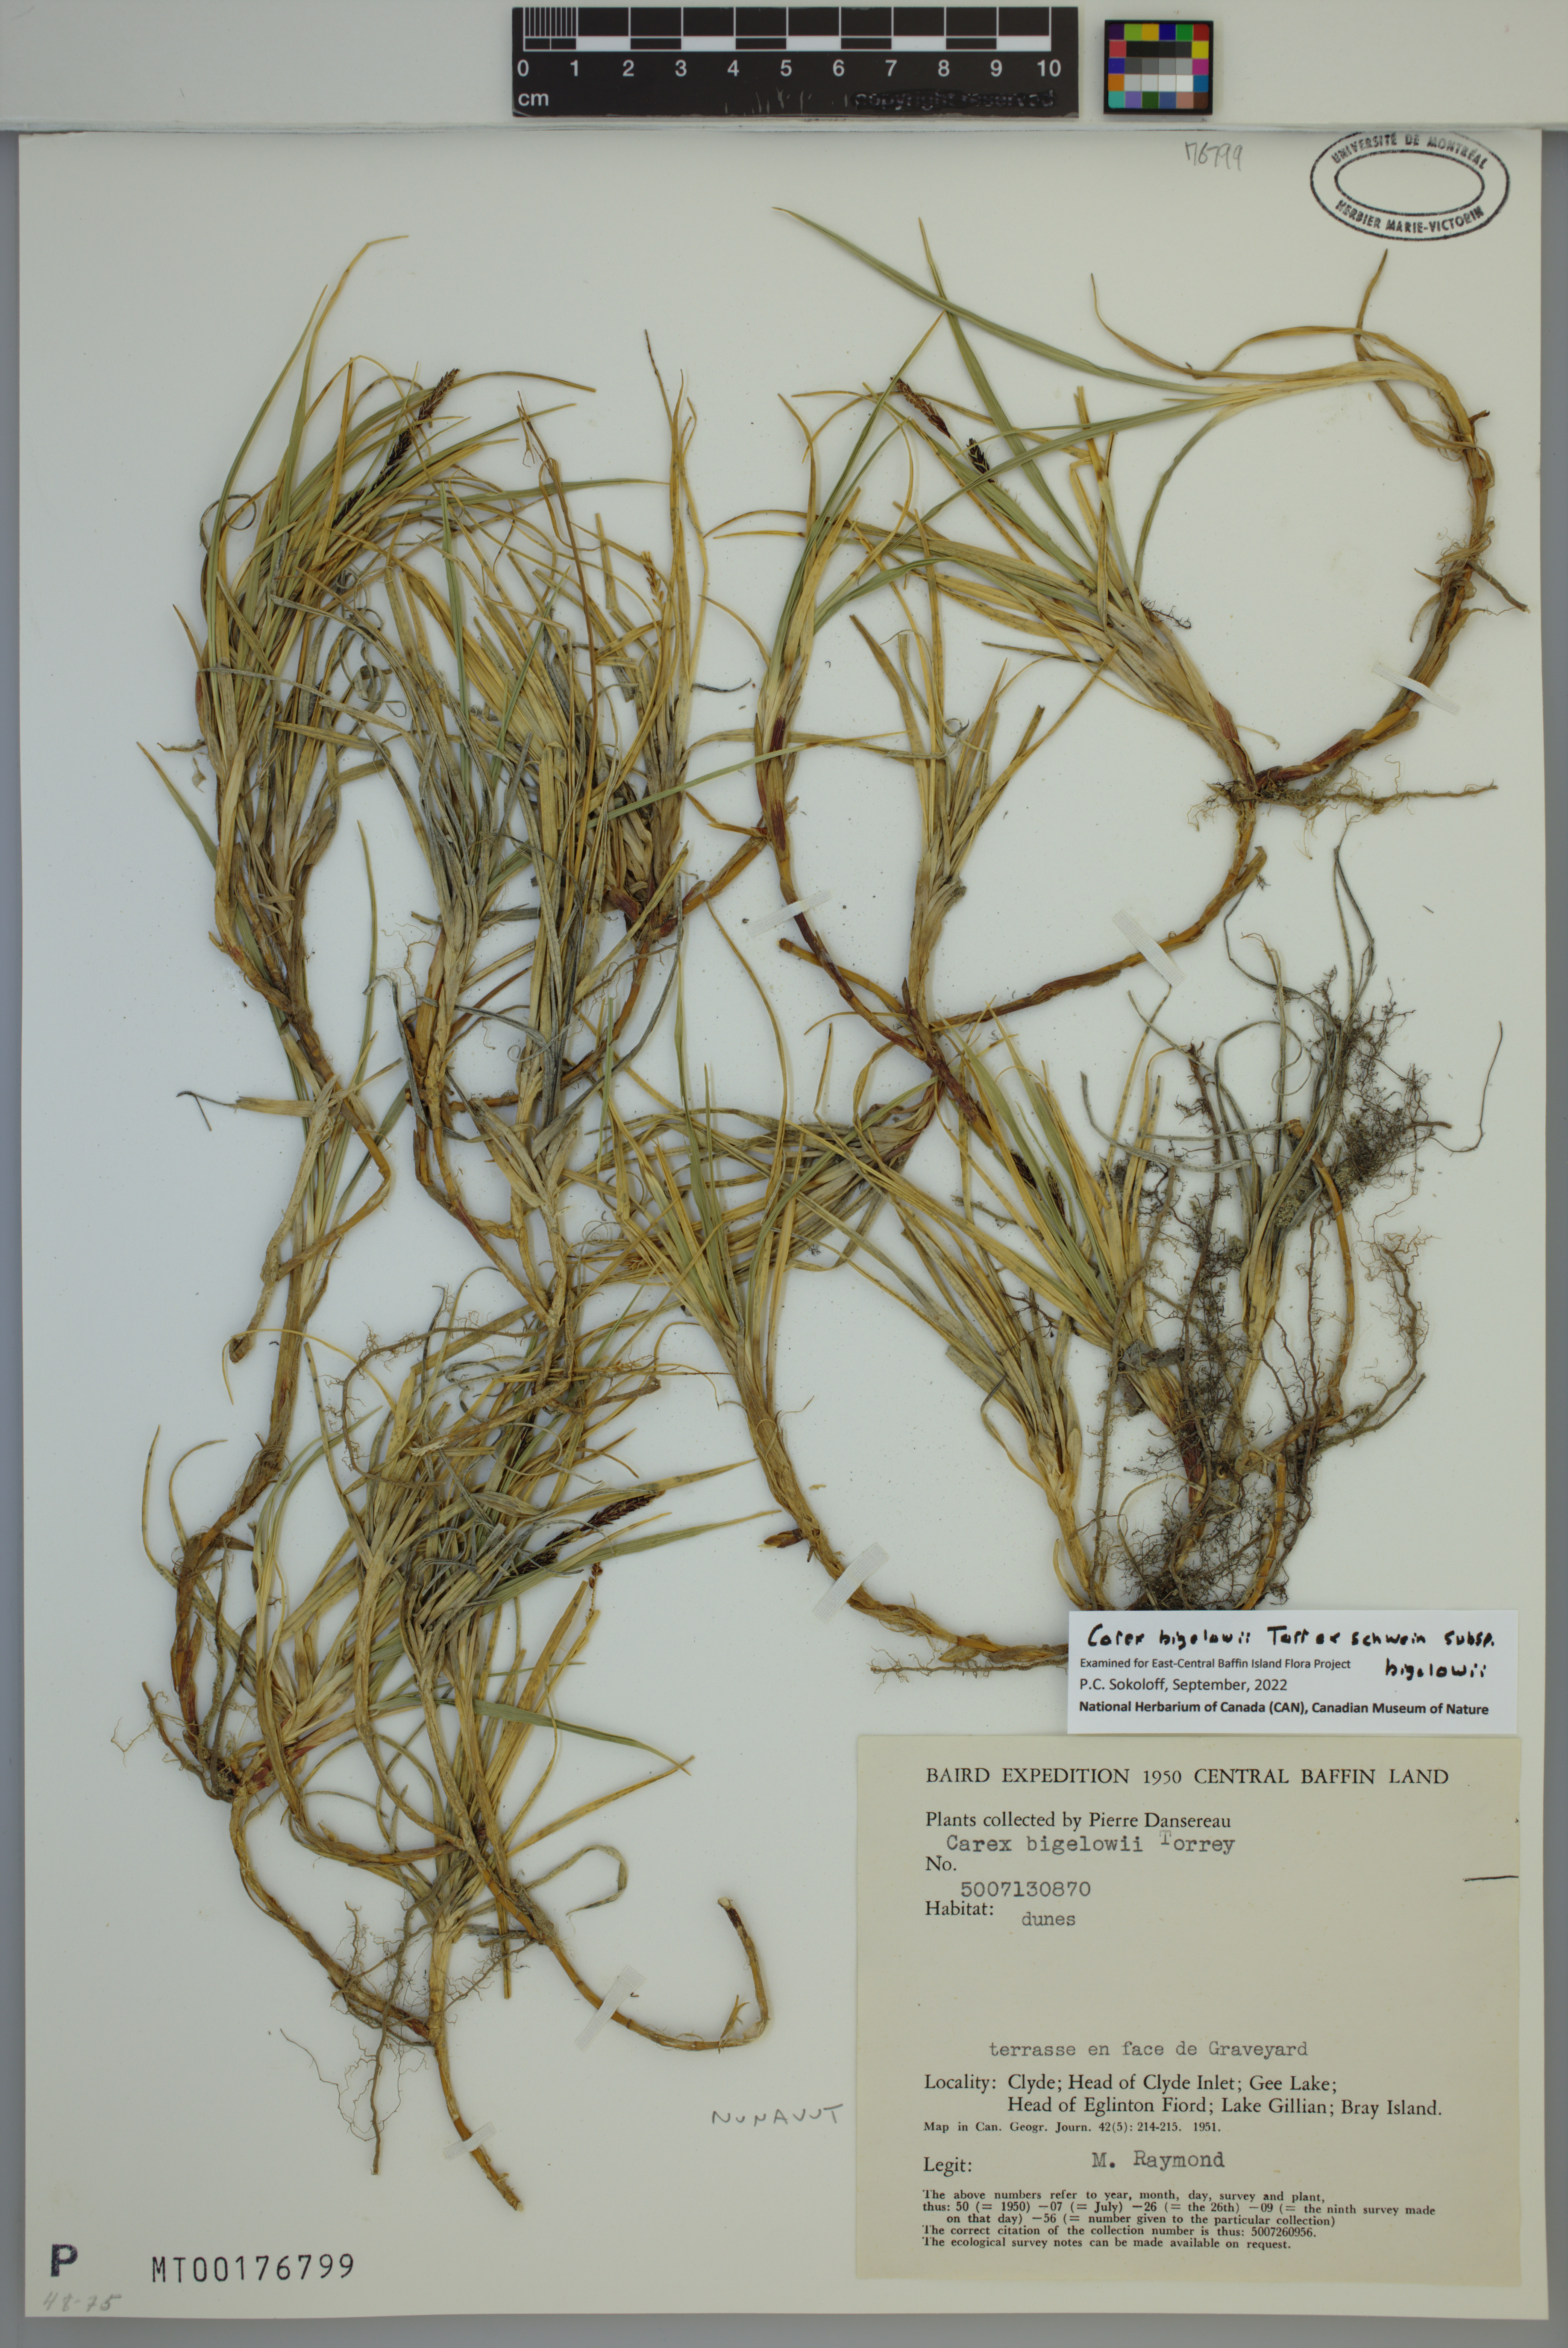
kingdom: Plantae
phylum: Tracheophyta
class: Liliopsida
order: Poales
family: Cyperaceae
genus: Carex
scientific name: Carex bigelowii
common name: Stiff sedge
